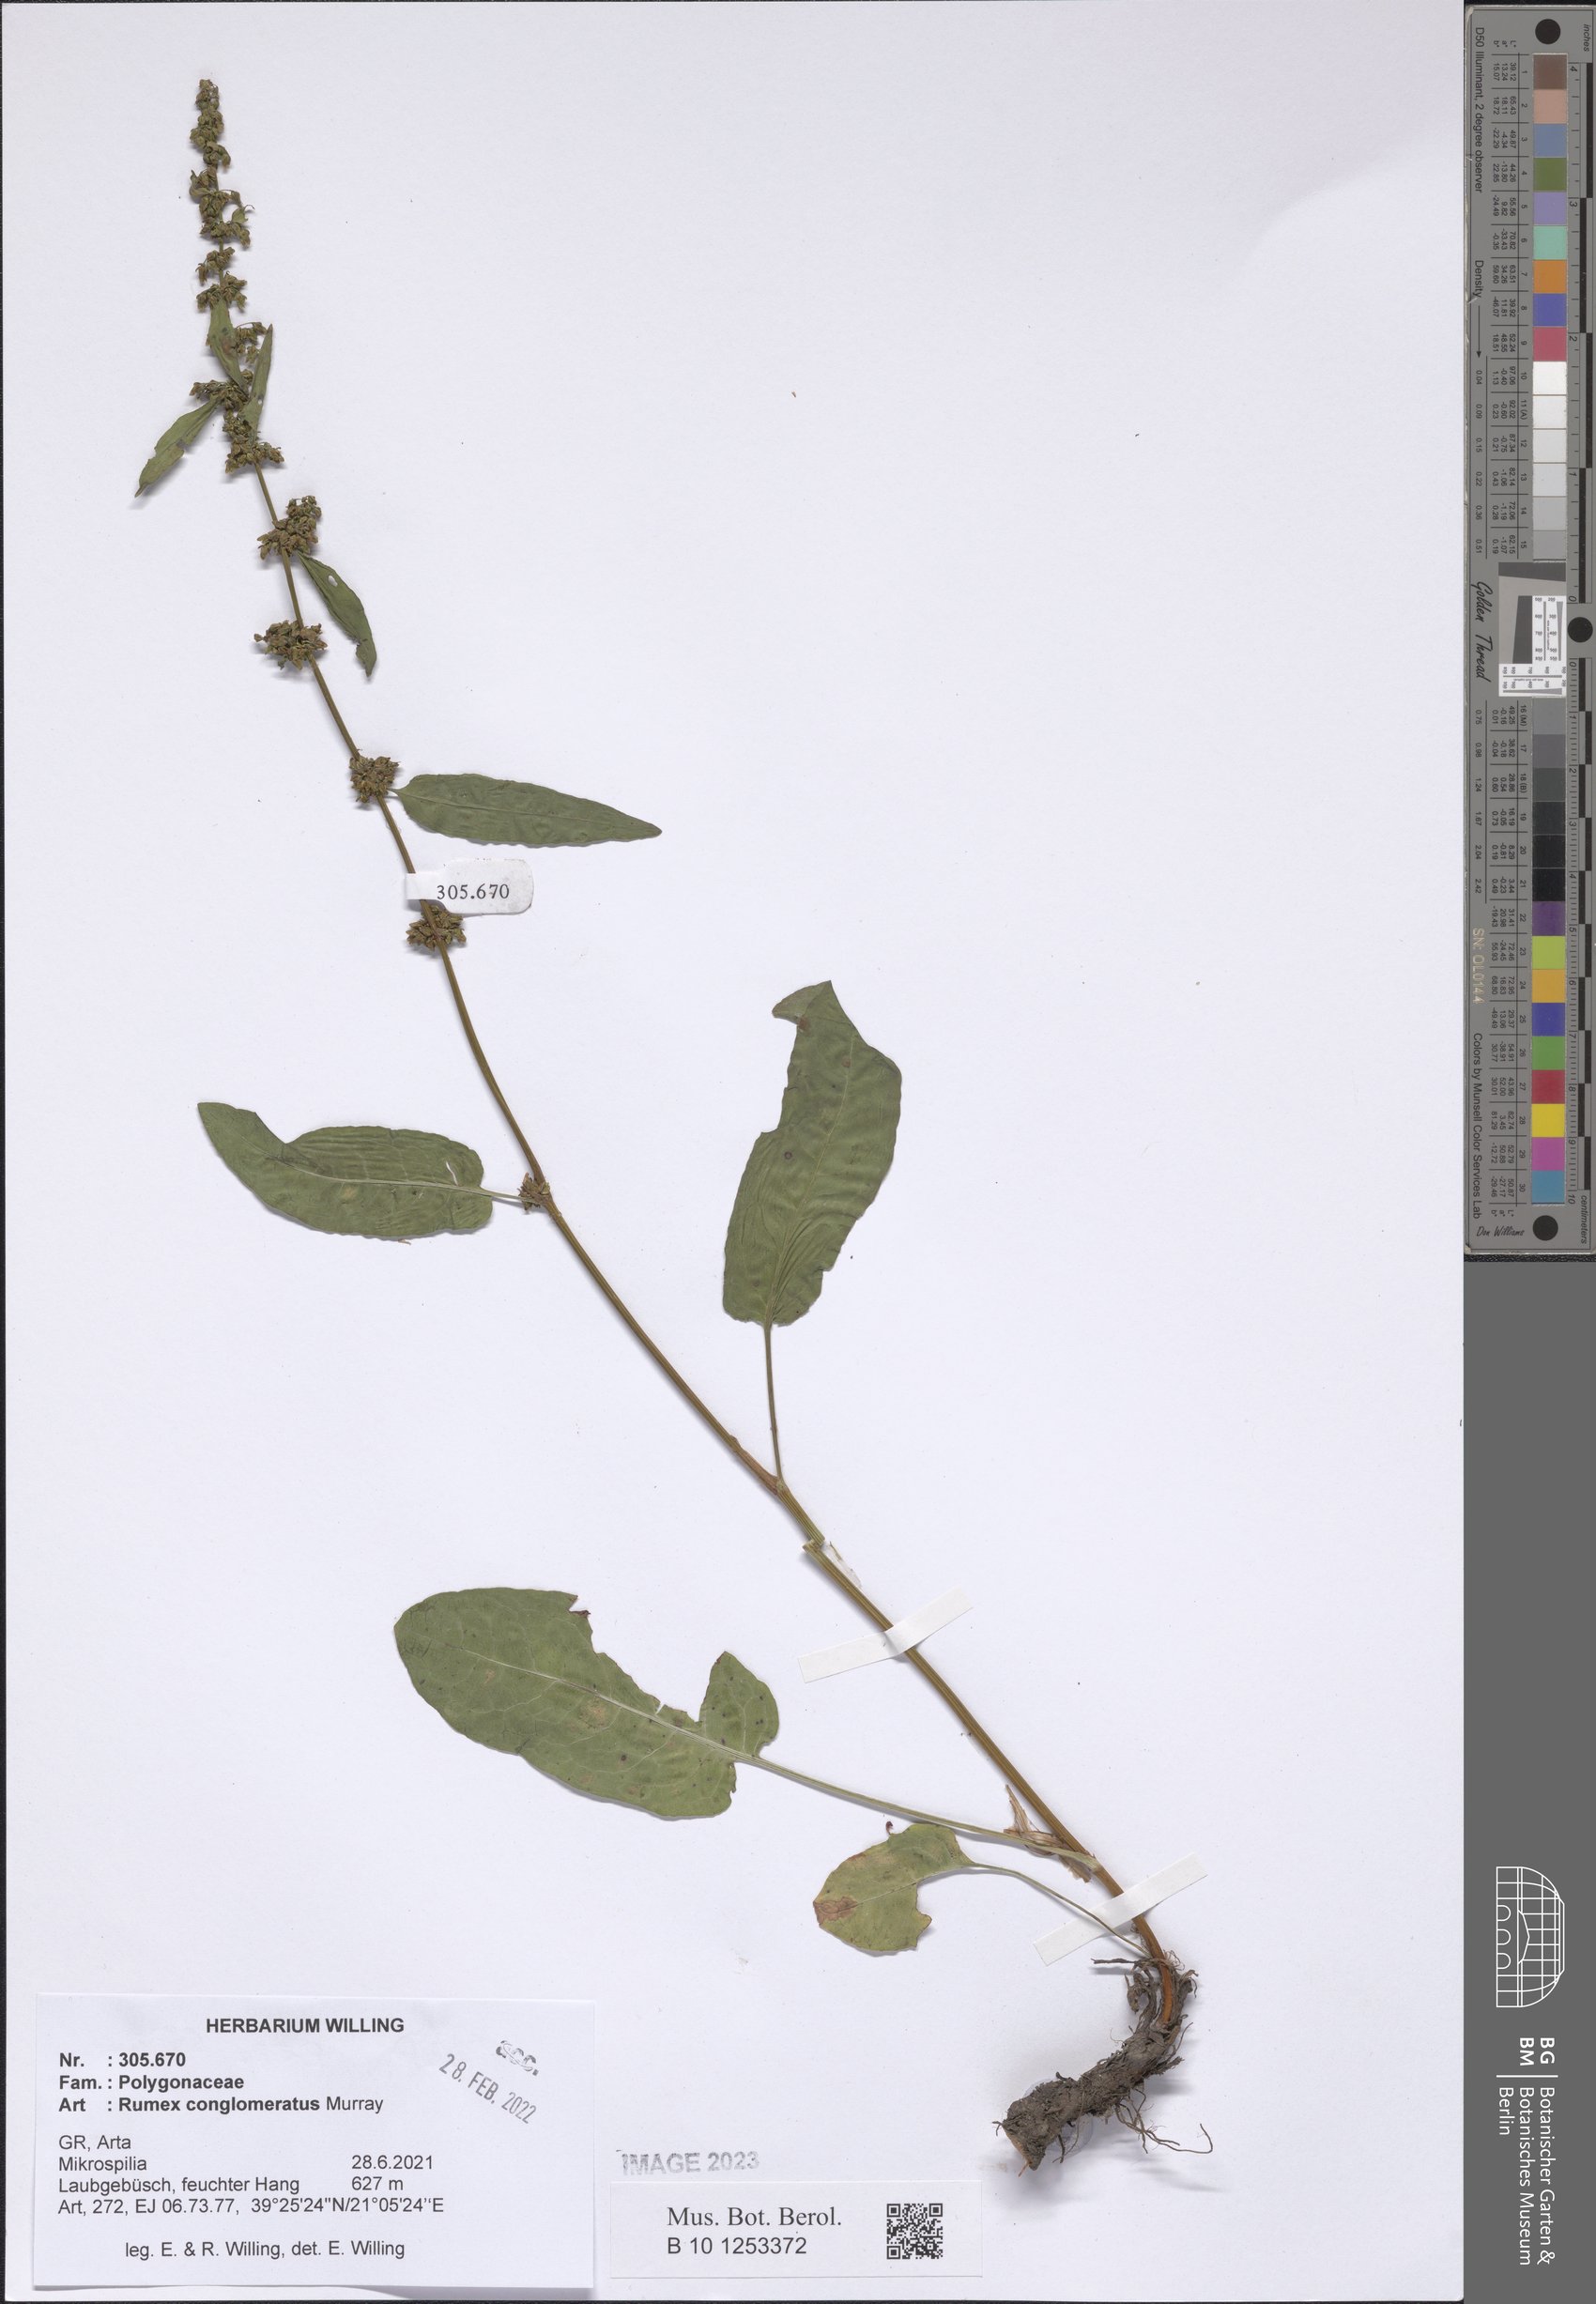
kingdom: Plantae
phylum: Tracheophyta
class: Magnoliopsida
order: Caryophyllales
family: Polygonaceae
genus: Rumex
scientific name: Rumex conglomeratus
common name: Clustered dock
